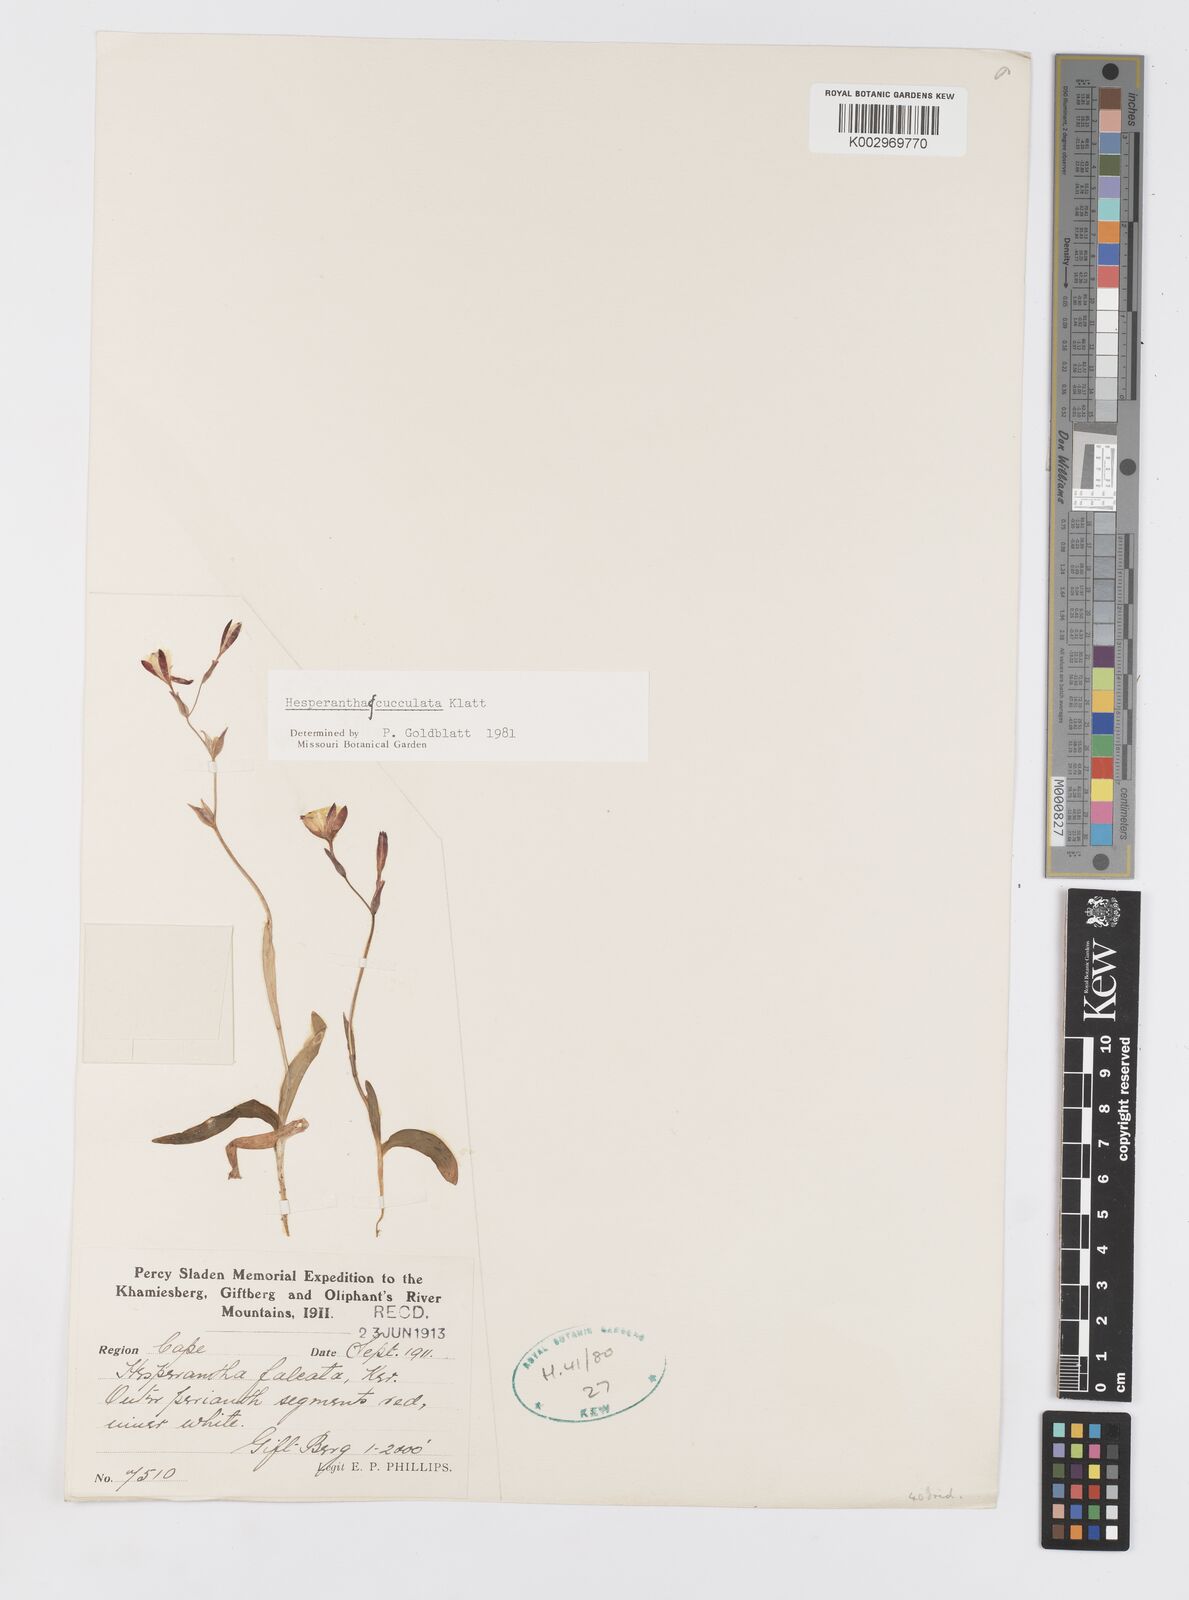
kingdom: Plantae
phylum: Tracheophyta
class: Liliopsida
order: Asparagales
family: Iridaceae
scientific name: Iridaceae
